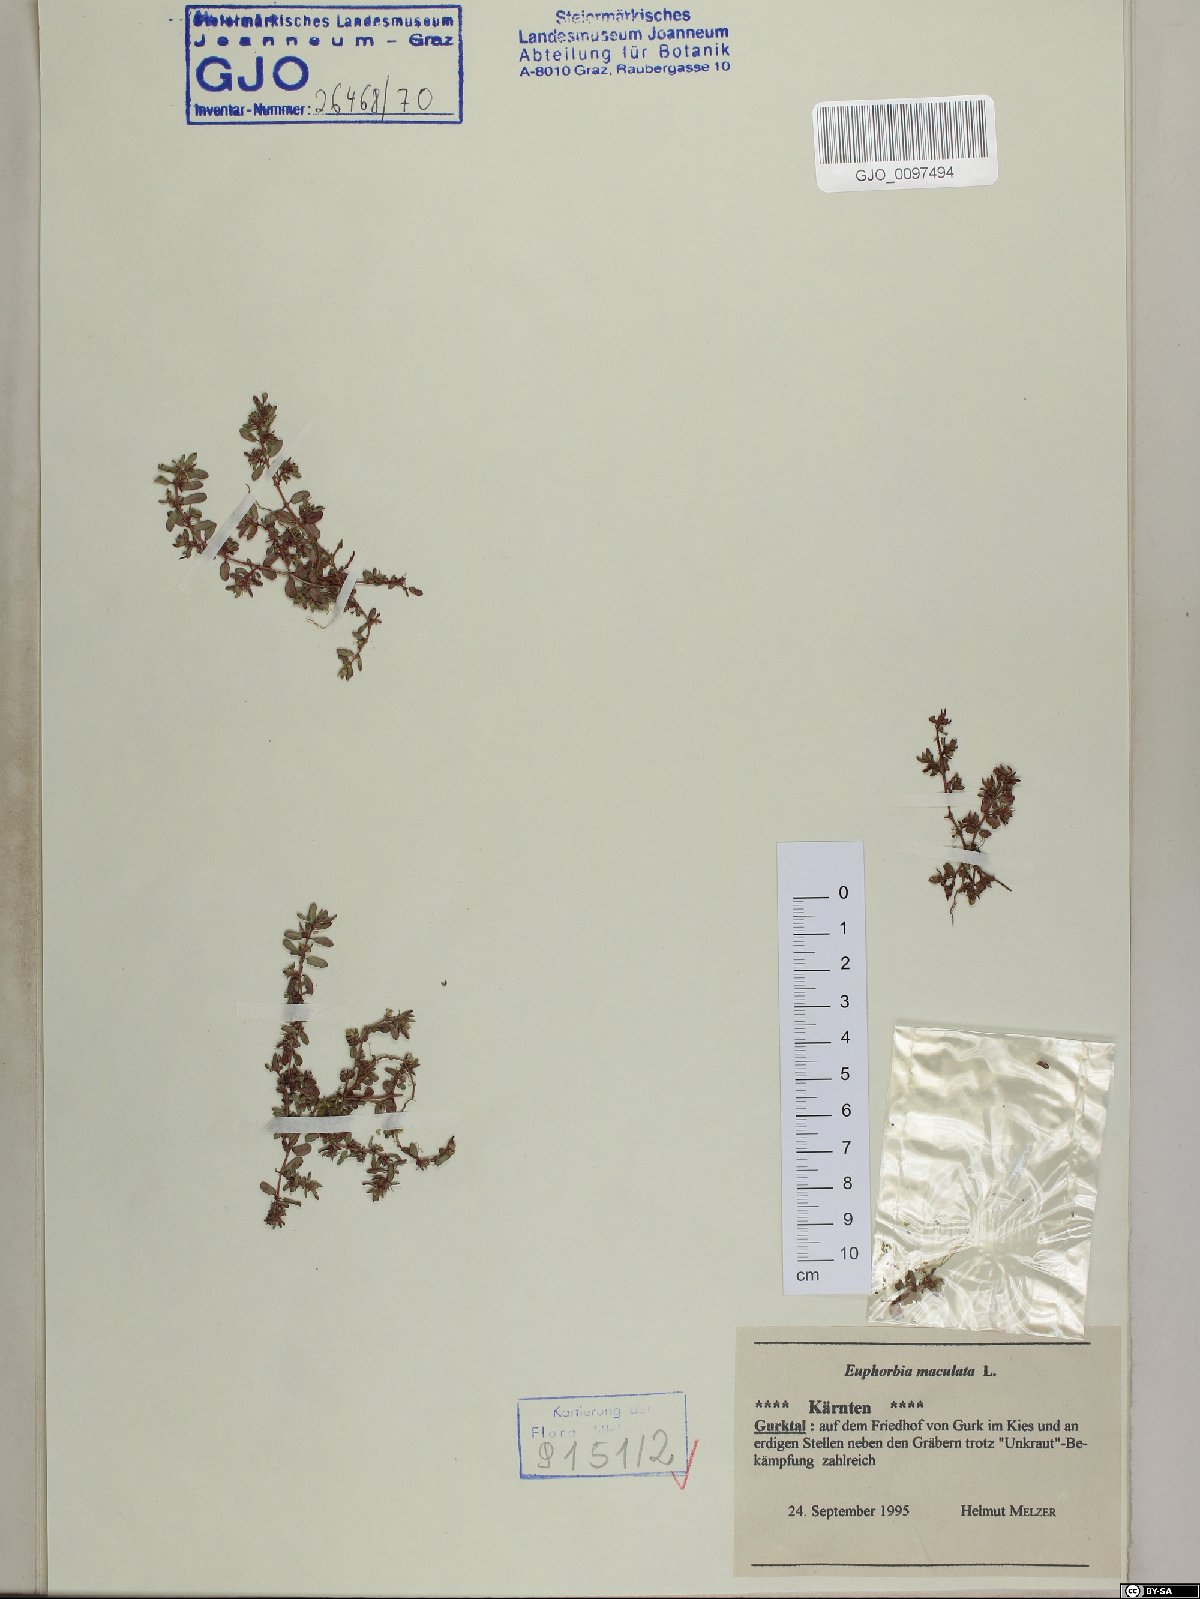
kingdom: Plantae
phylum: Tracheophyta
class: Magnoliopsida
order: Malpighiales
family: Euphorbiaceae
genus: Euphorbia
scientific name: Euphorbia maculata
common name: Spotted spurge
